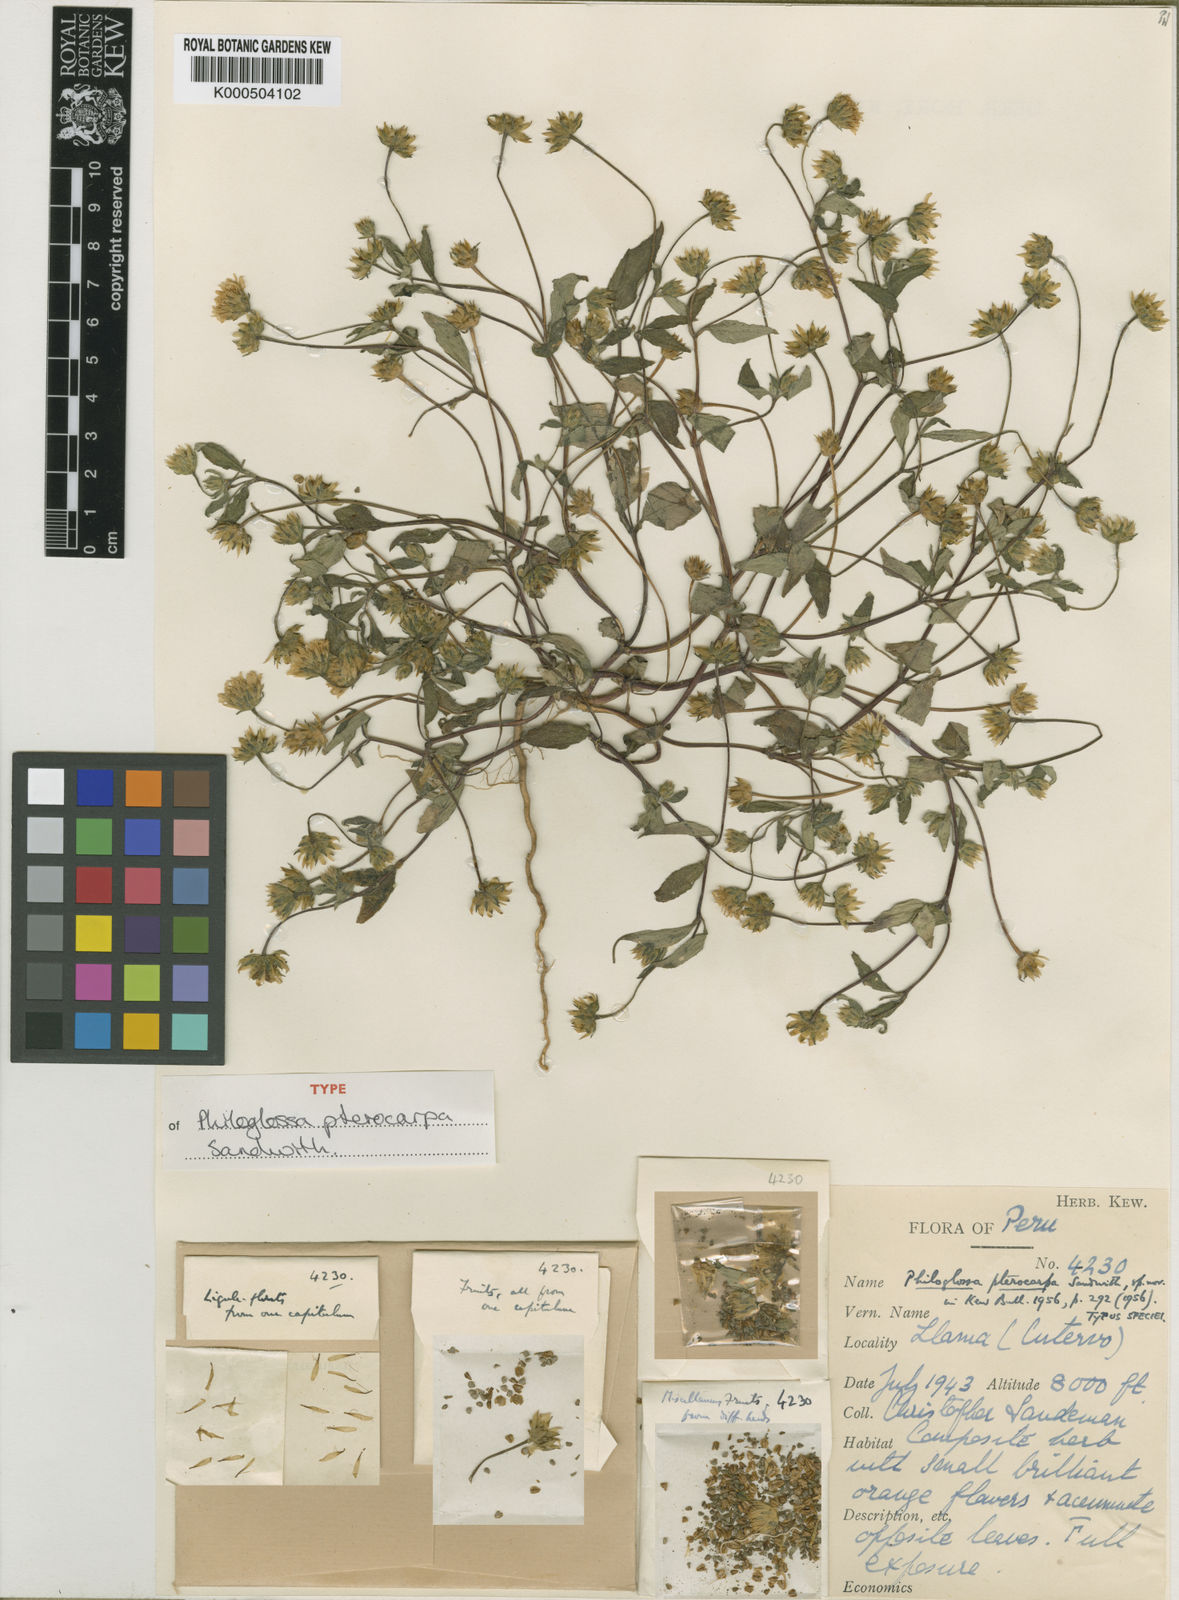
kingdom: Plantae
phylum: Tracheophyta
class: Magnoliopsida
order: Asterales
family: Asteraceae
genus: Philoglossa
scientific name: Philoglossa pterocarpa
